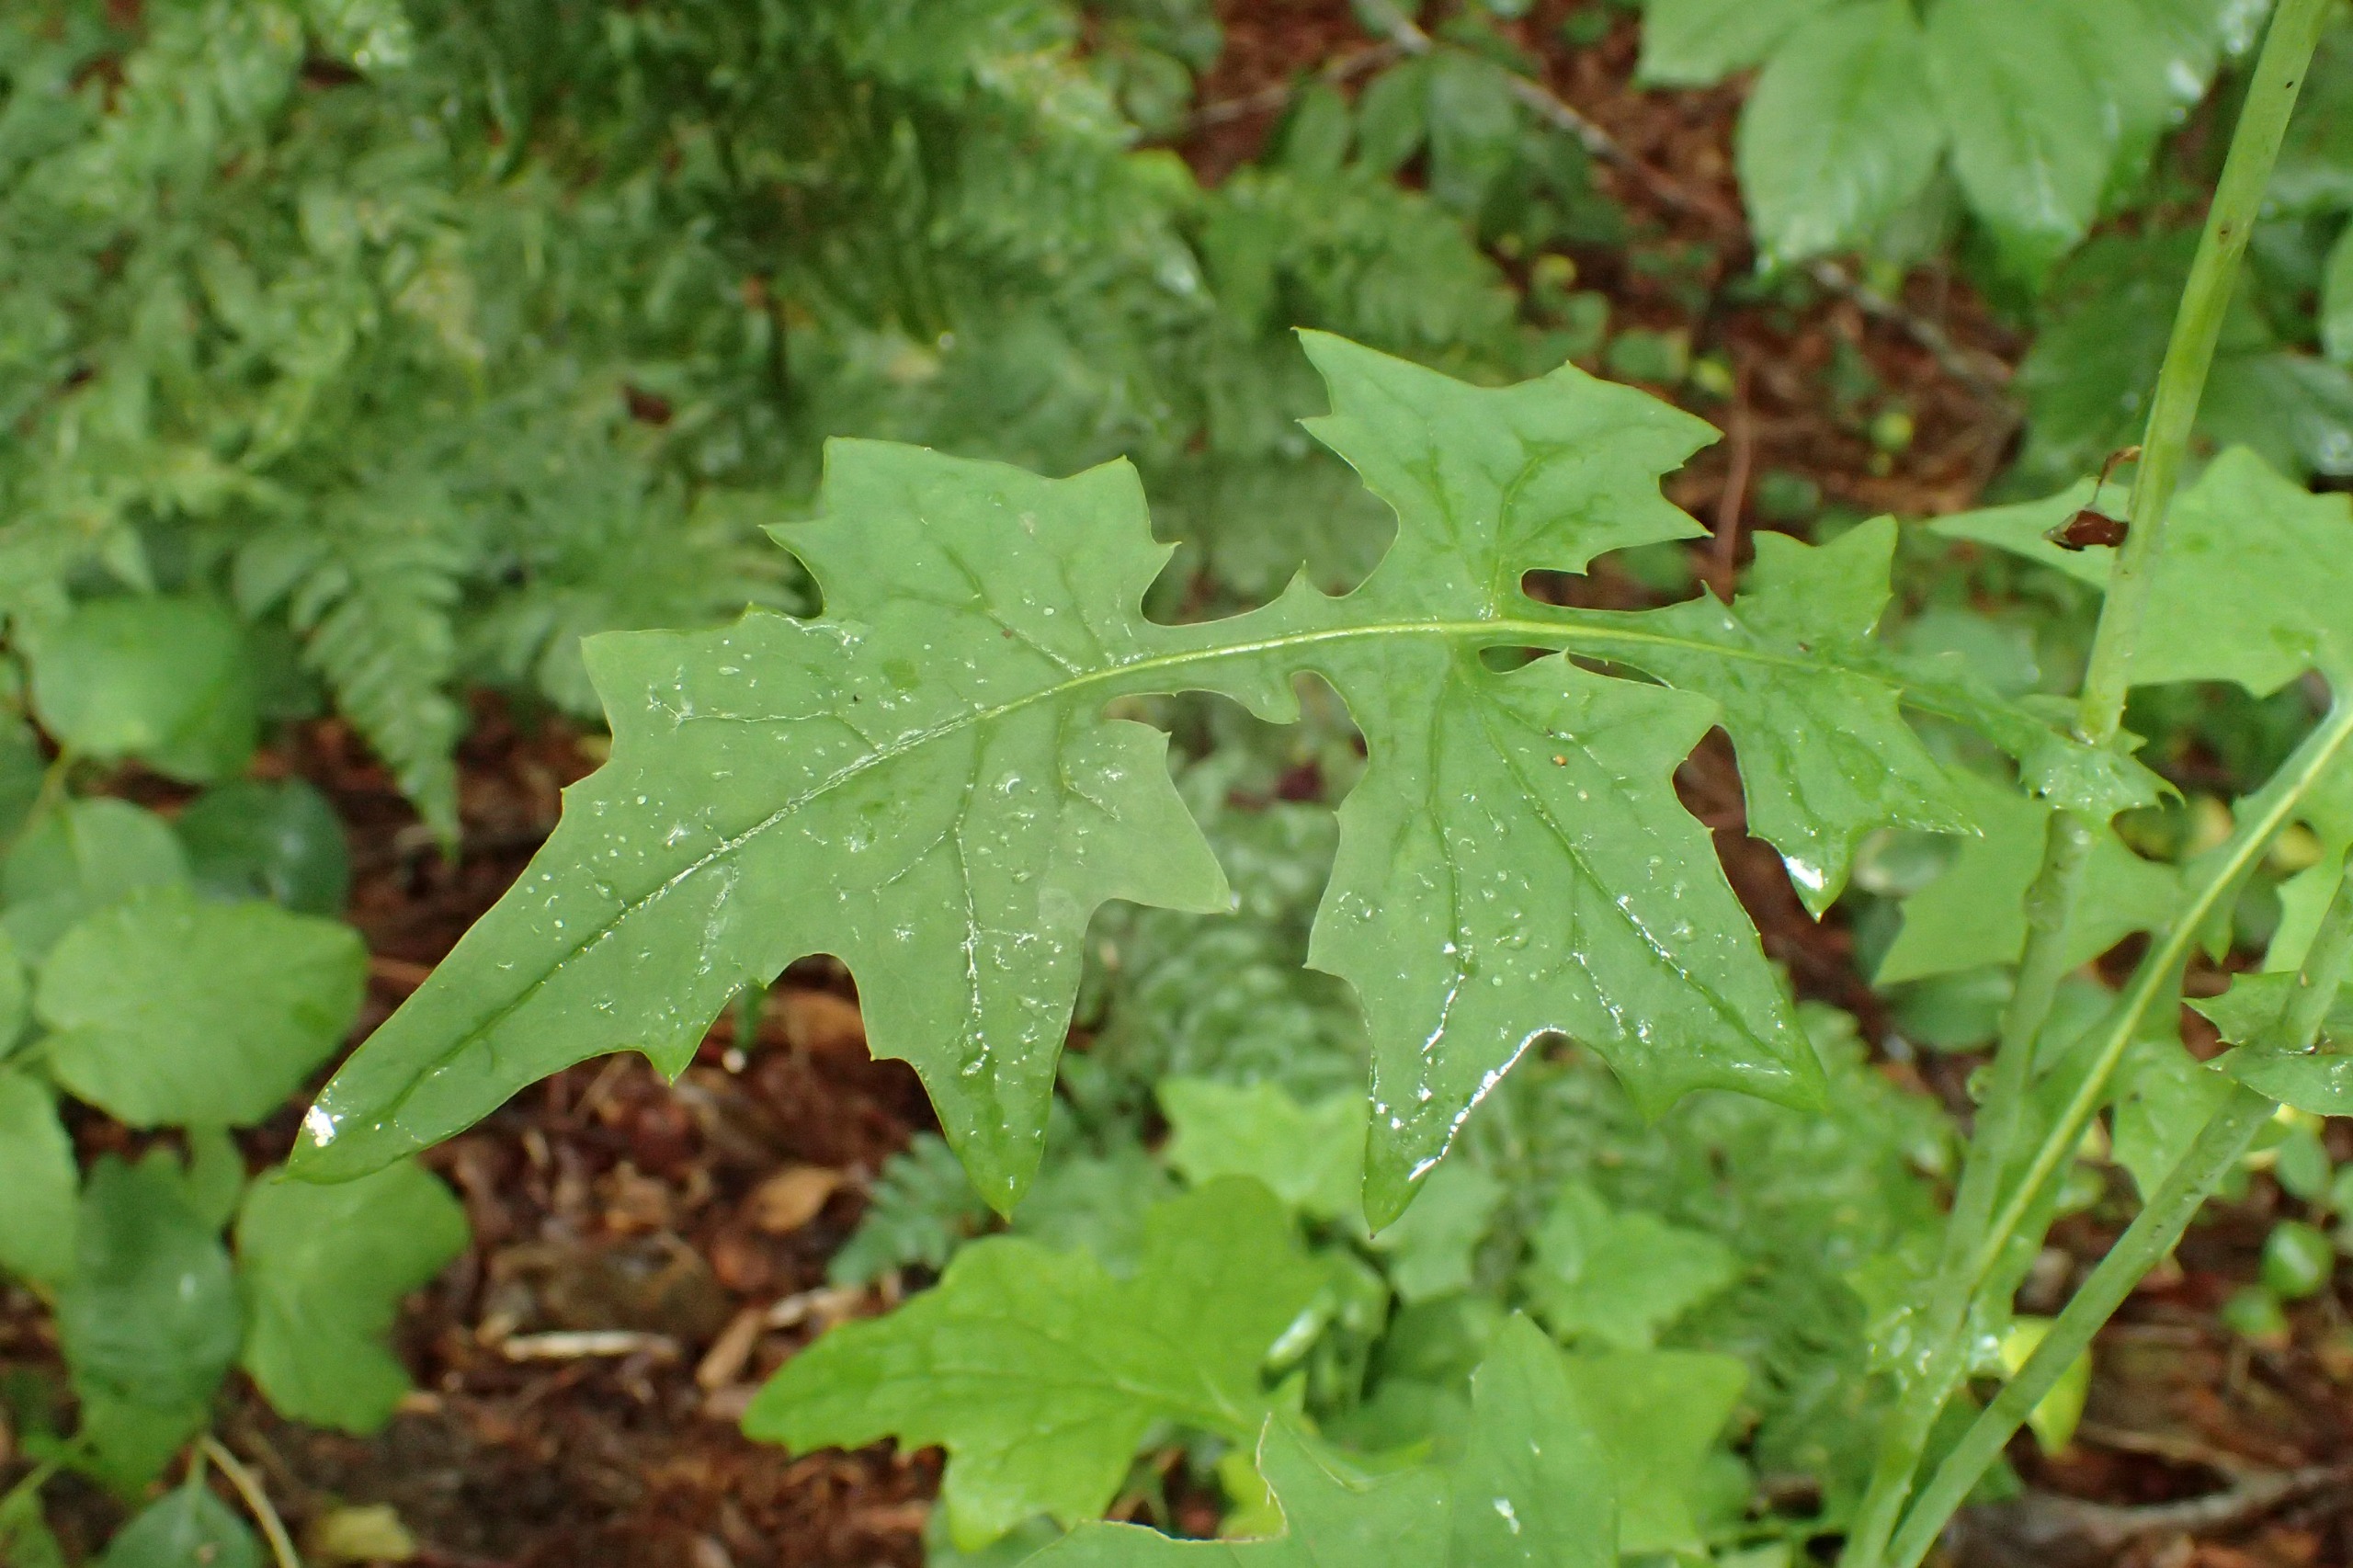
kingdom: Plantae
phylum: Tracheophyta
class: Magnoliopsida
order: Asterales
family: Asteraceae
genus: Mycelis
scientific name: Mycelis muralis
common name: Skov-salat
